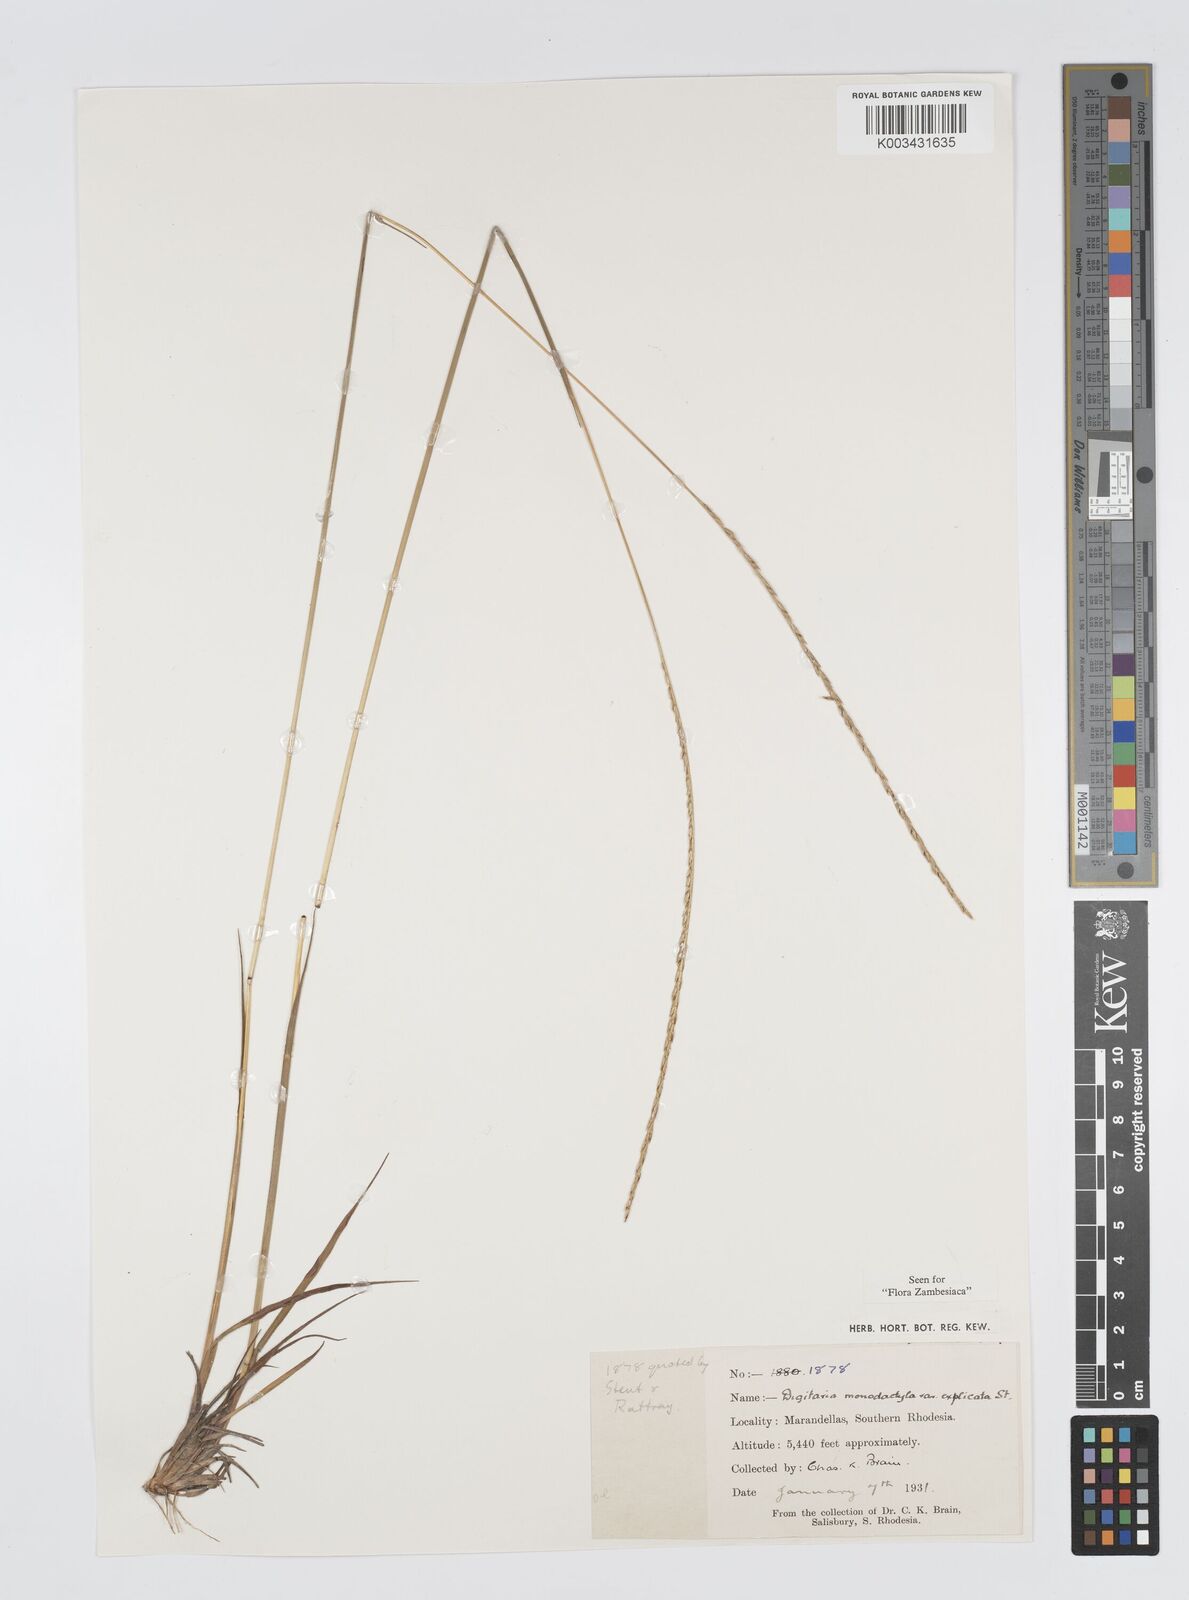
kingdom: Plantae
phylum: Tracheophyta
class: Liliopsida
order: Poales
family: Poaceae
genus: Digitaria
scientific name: Digitaria monodactyla
